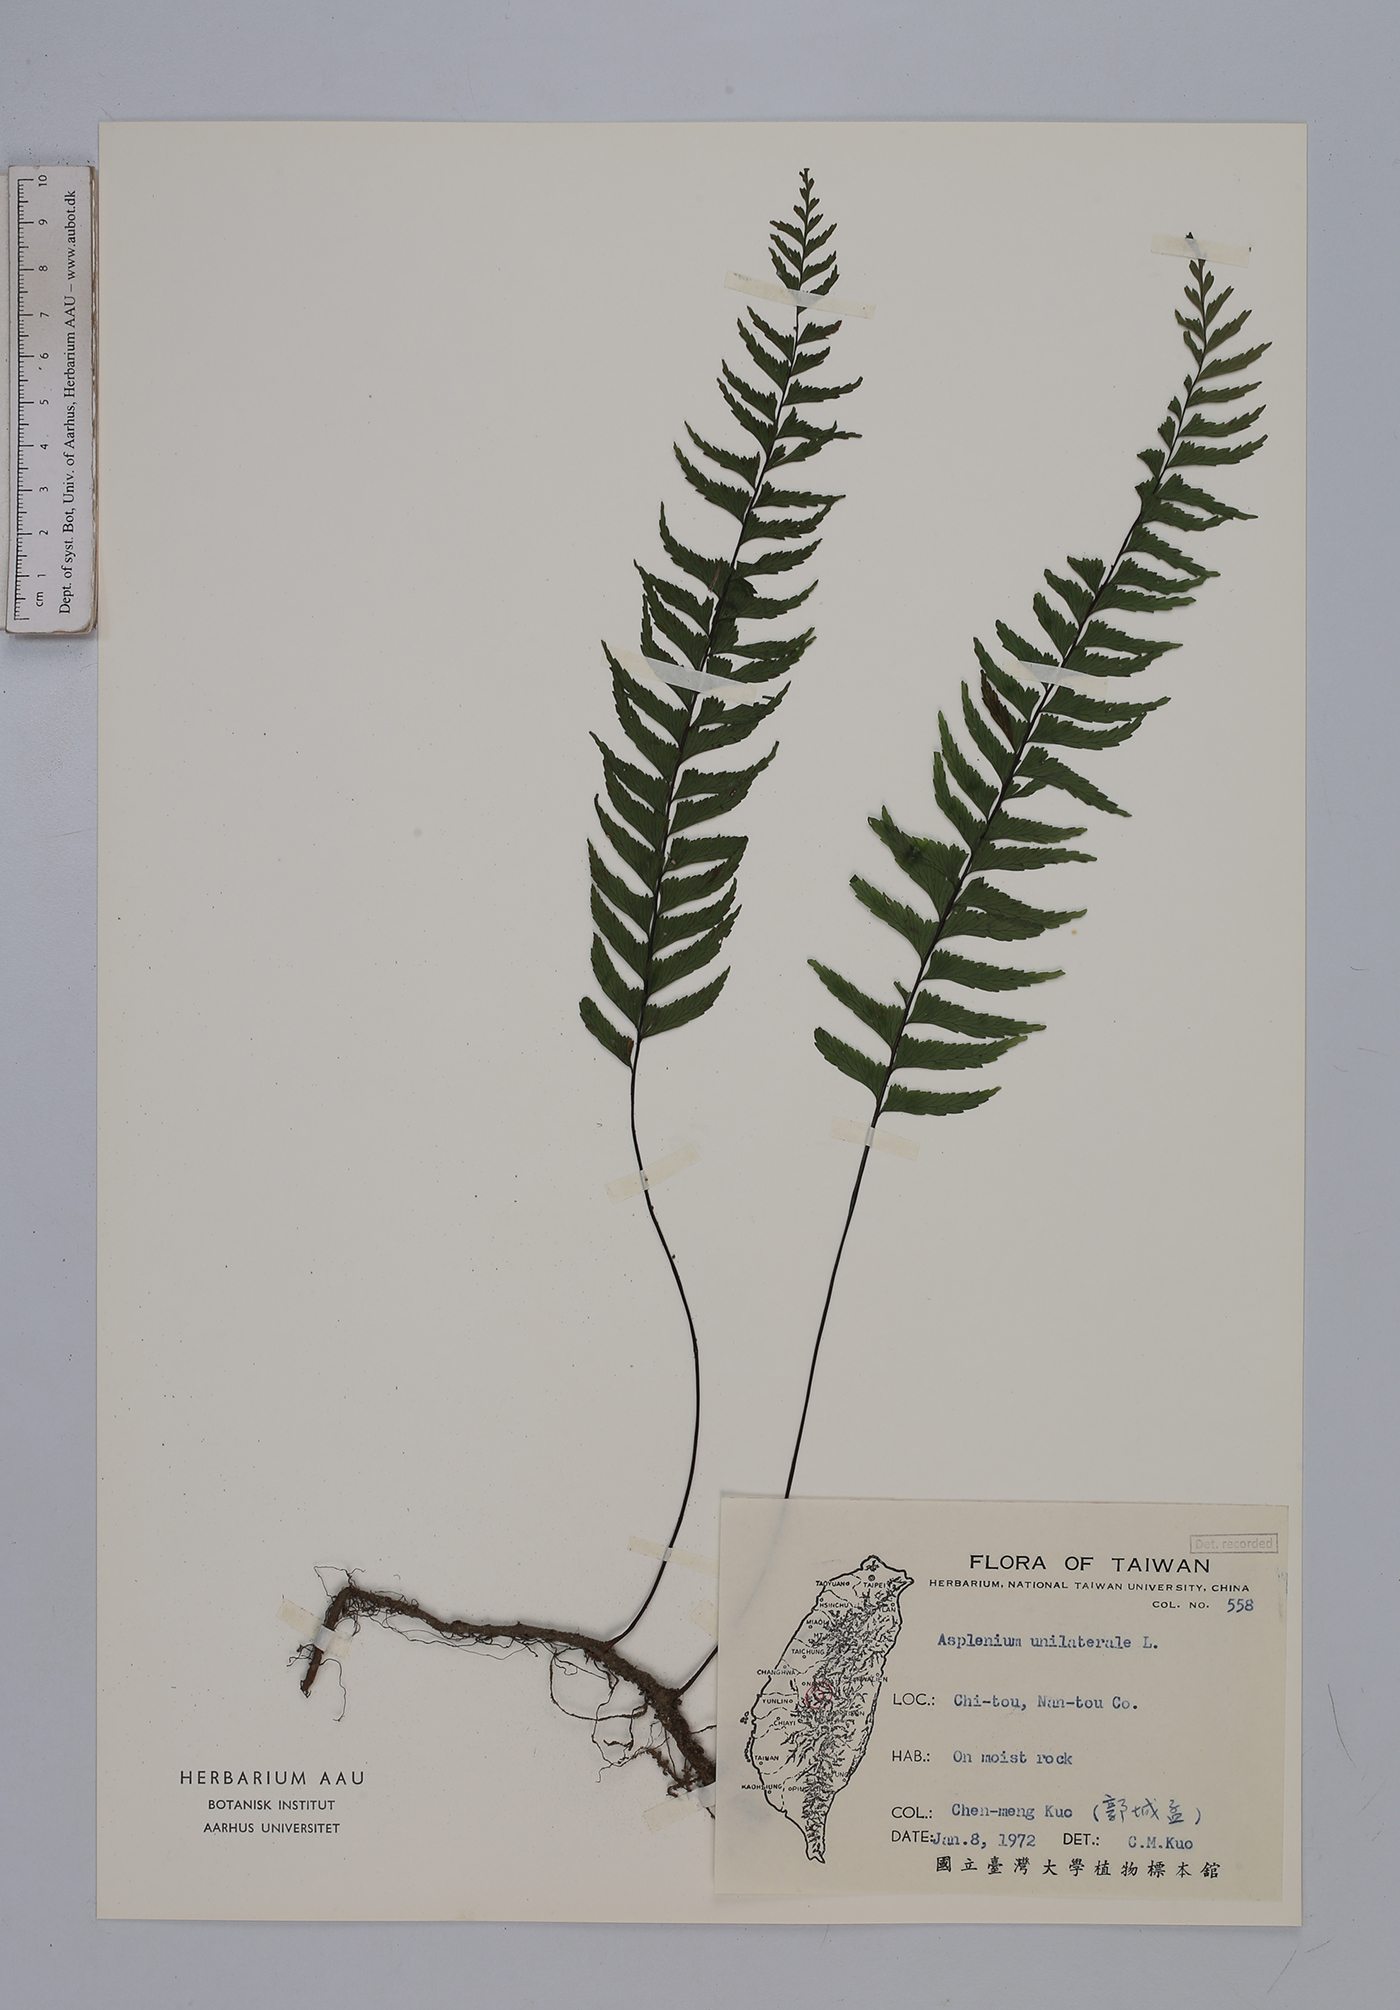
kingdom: Plantae
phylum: Tracheophyta
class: Polypodiopsida
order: Polypodiales
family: Aspleniaceae
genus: Hymenasplenium
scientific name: Hymenasplenium unilaterale
